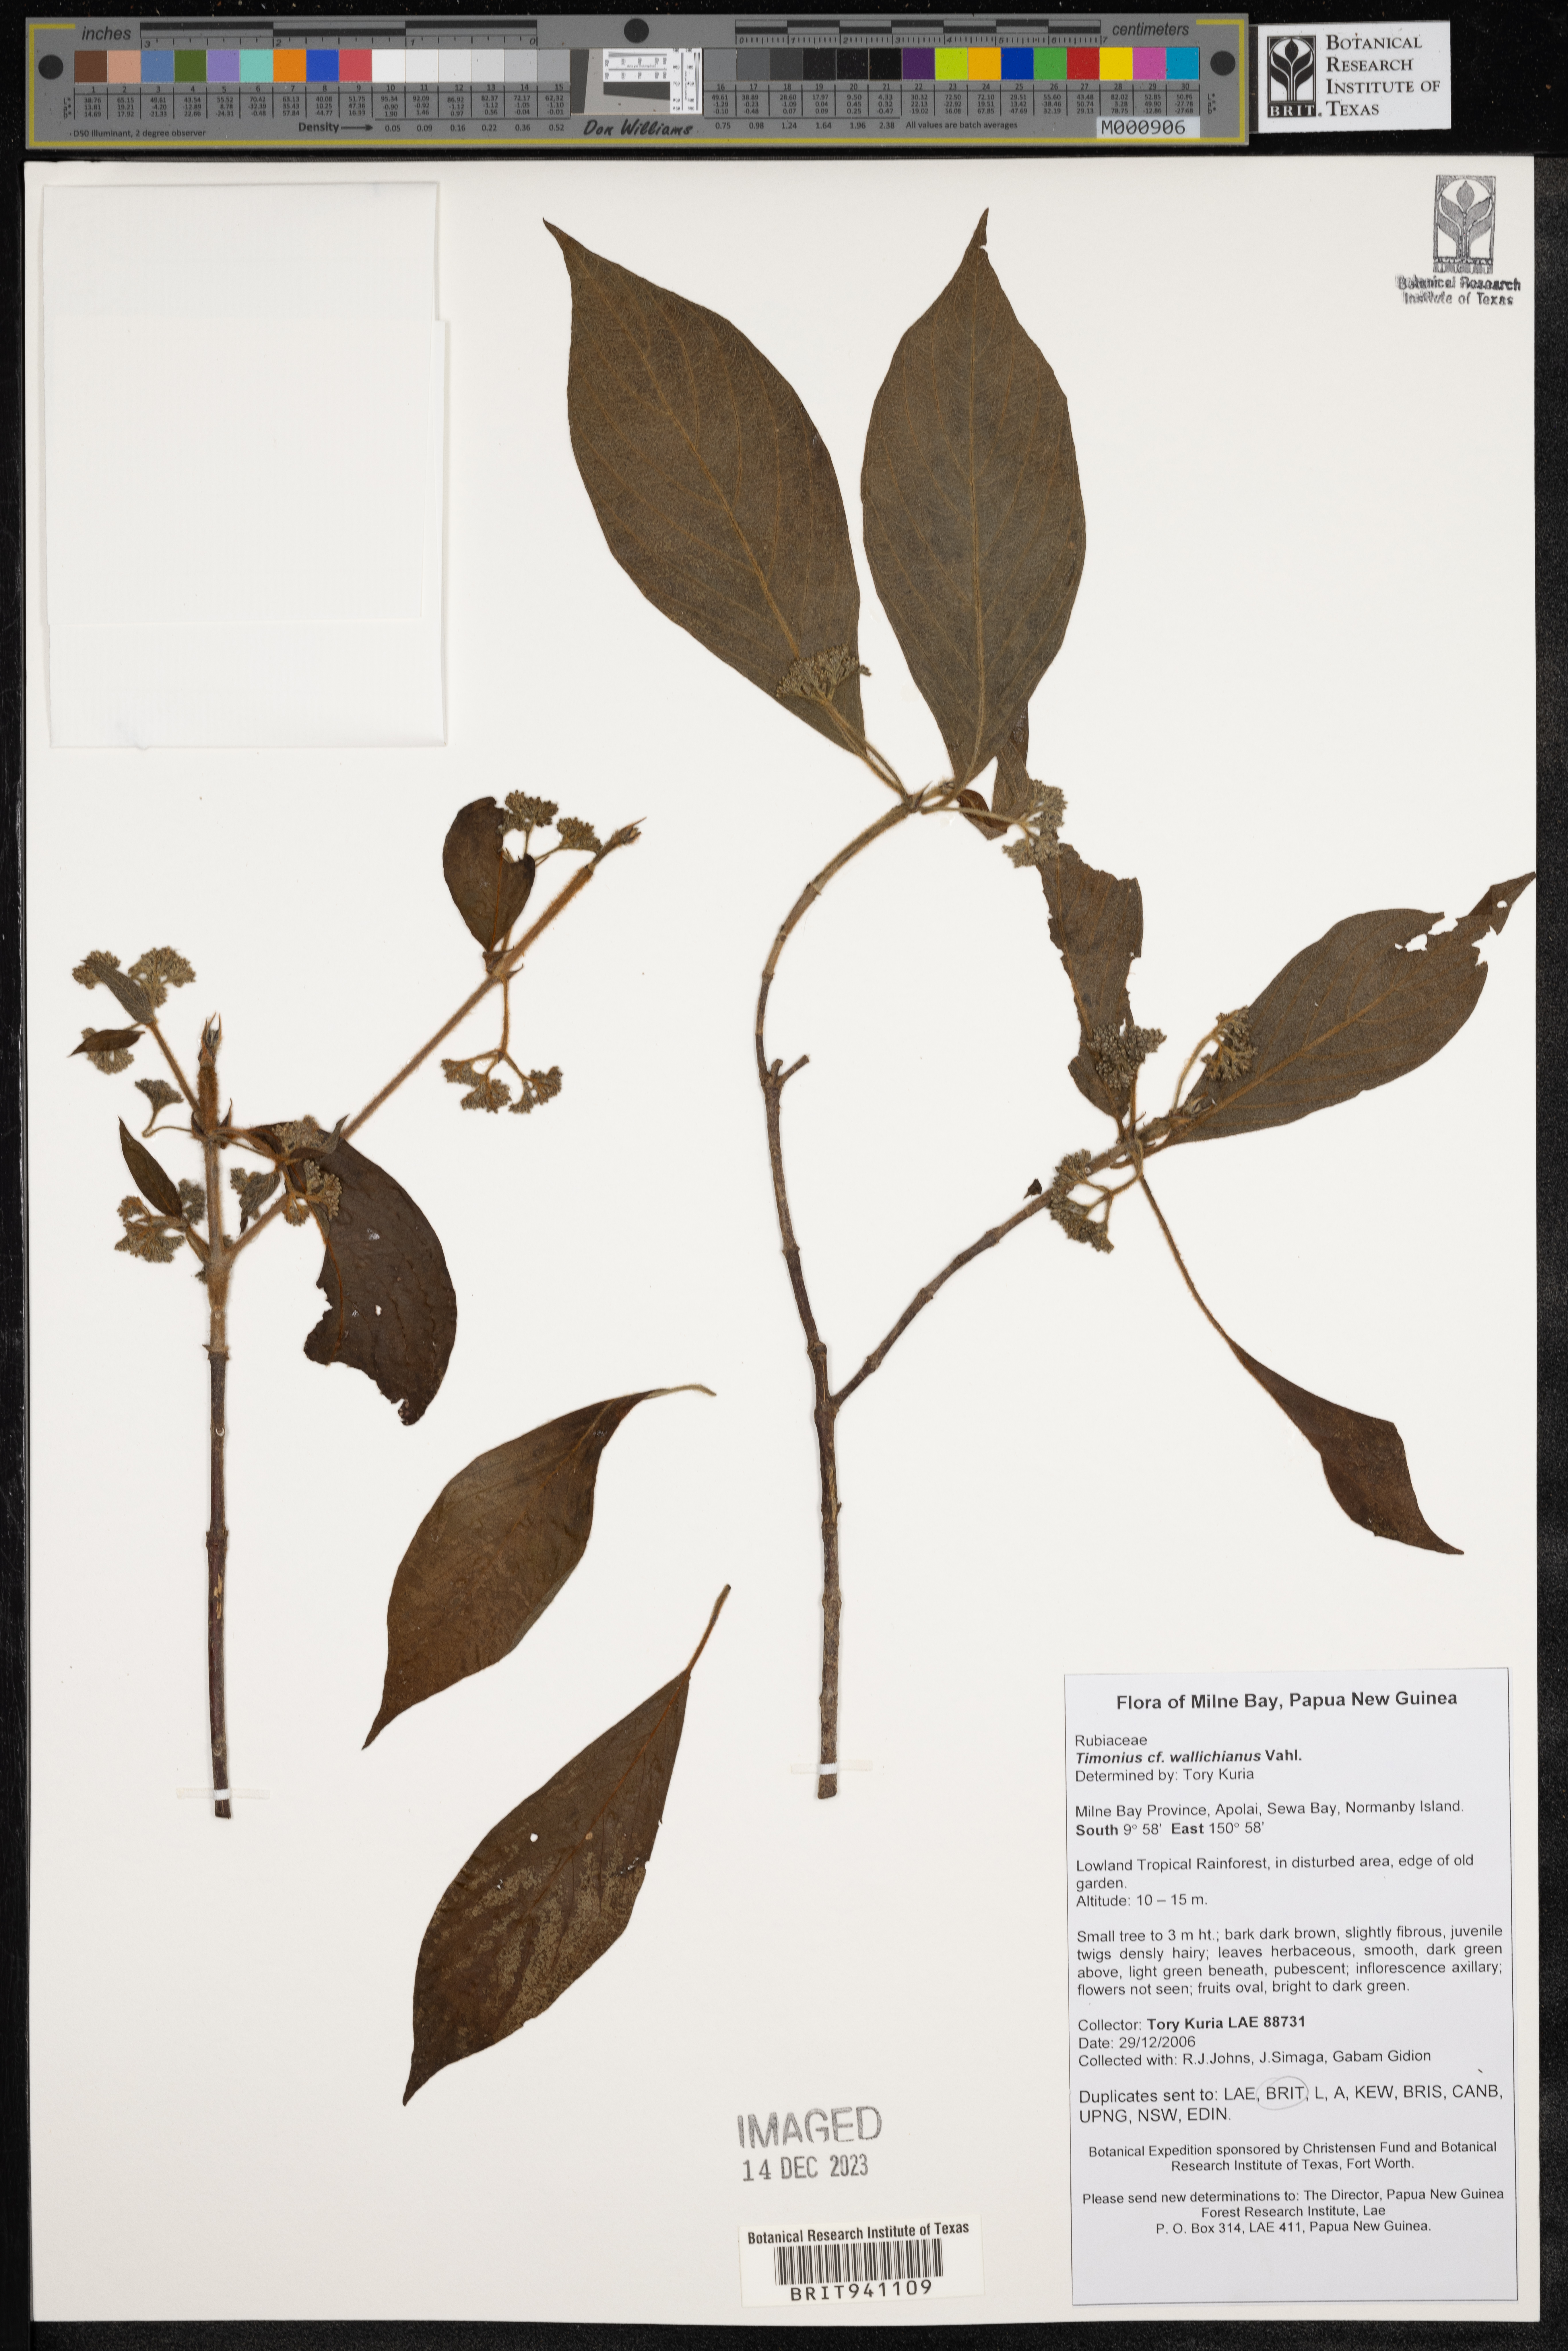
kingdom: Plantae
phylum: Tracheophyta
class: Magnoliopsida
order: Gentianales
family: Rubiaceae
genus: Timonius
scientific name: Timonius
